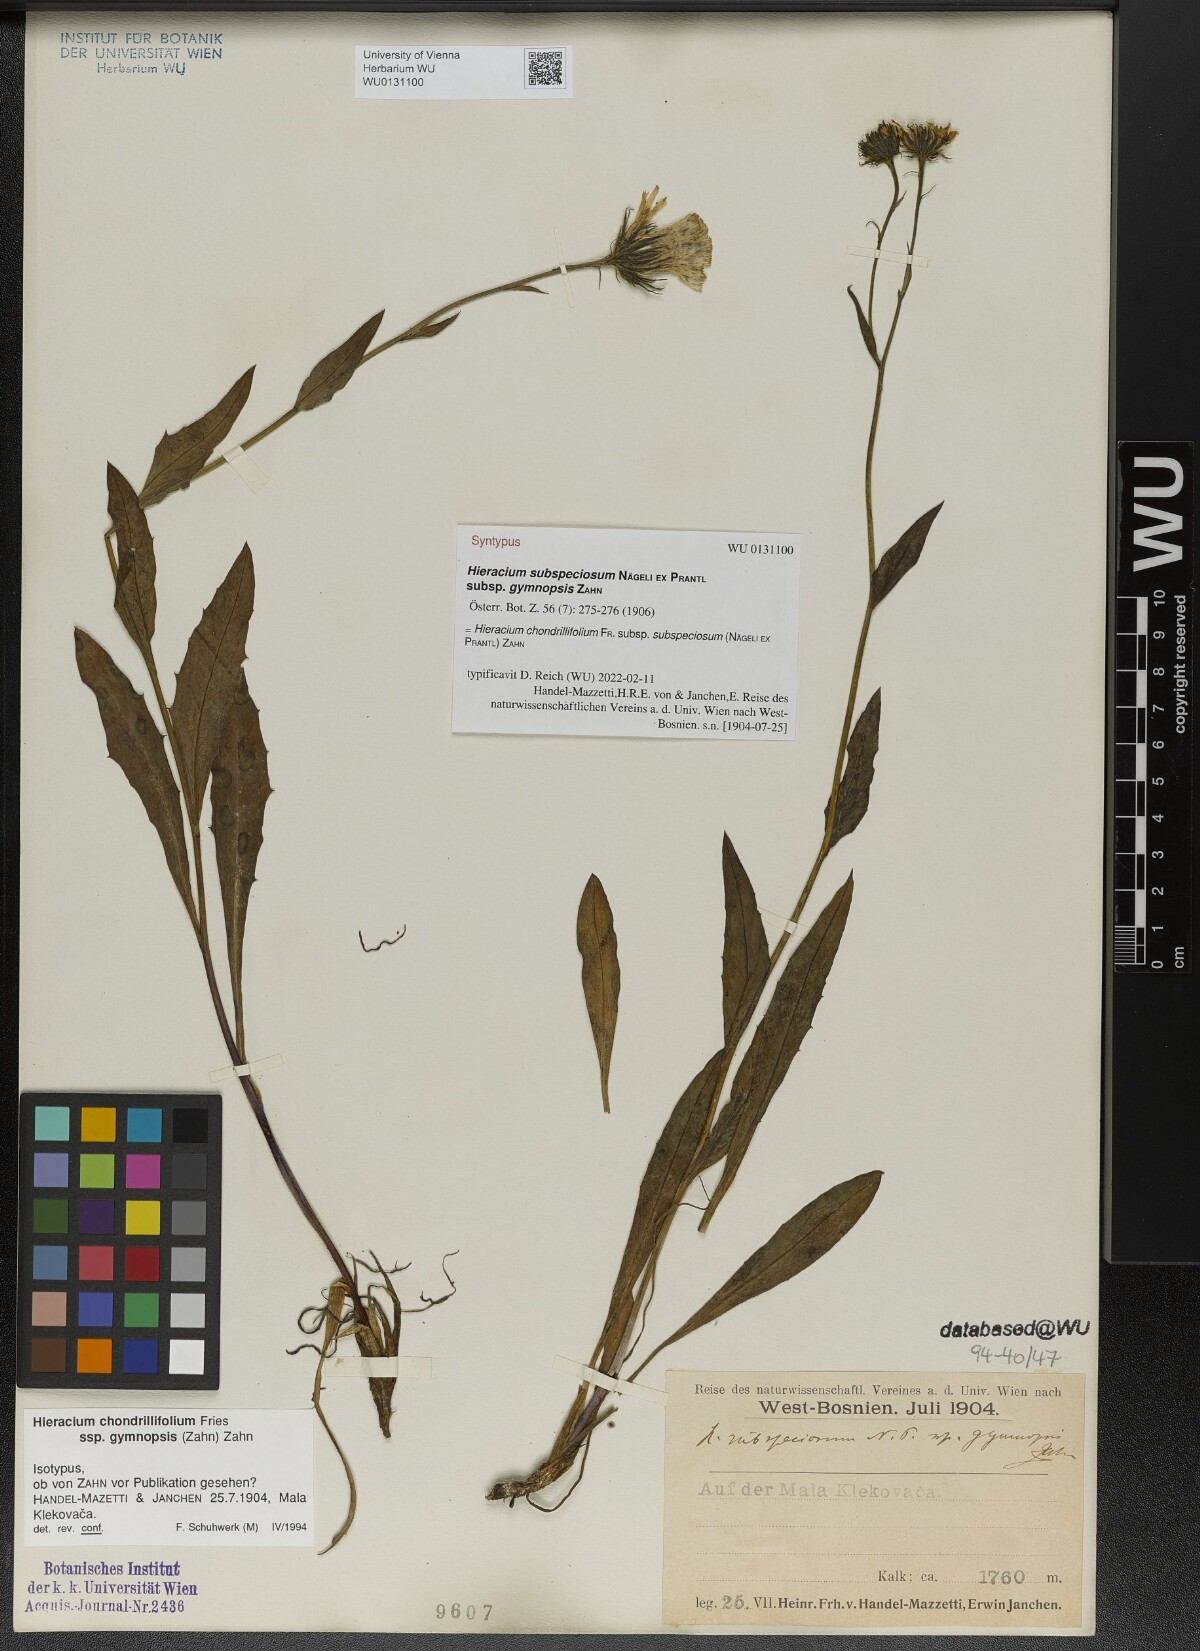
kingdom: Plantae
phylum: Tracheophyta
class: Magnoliopsida
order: Asterales
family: Asteraceae
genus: Hieracium
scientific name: Hieracium chondrillifolium
